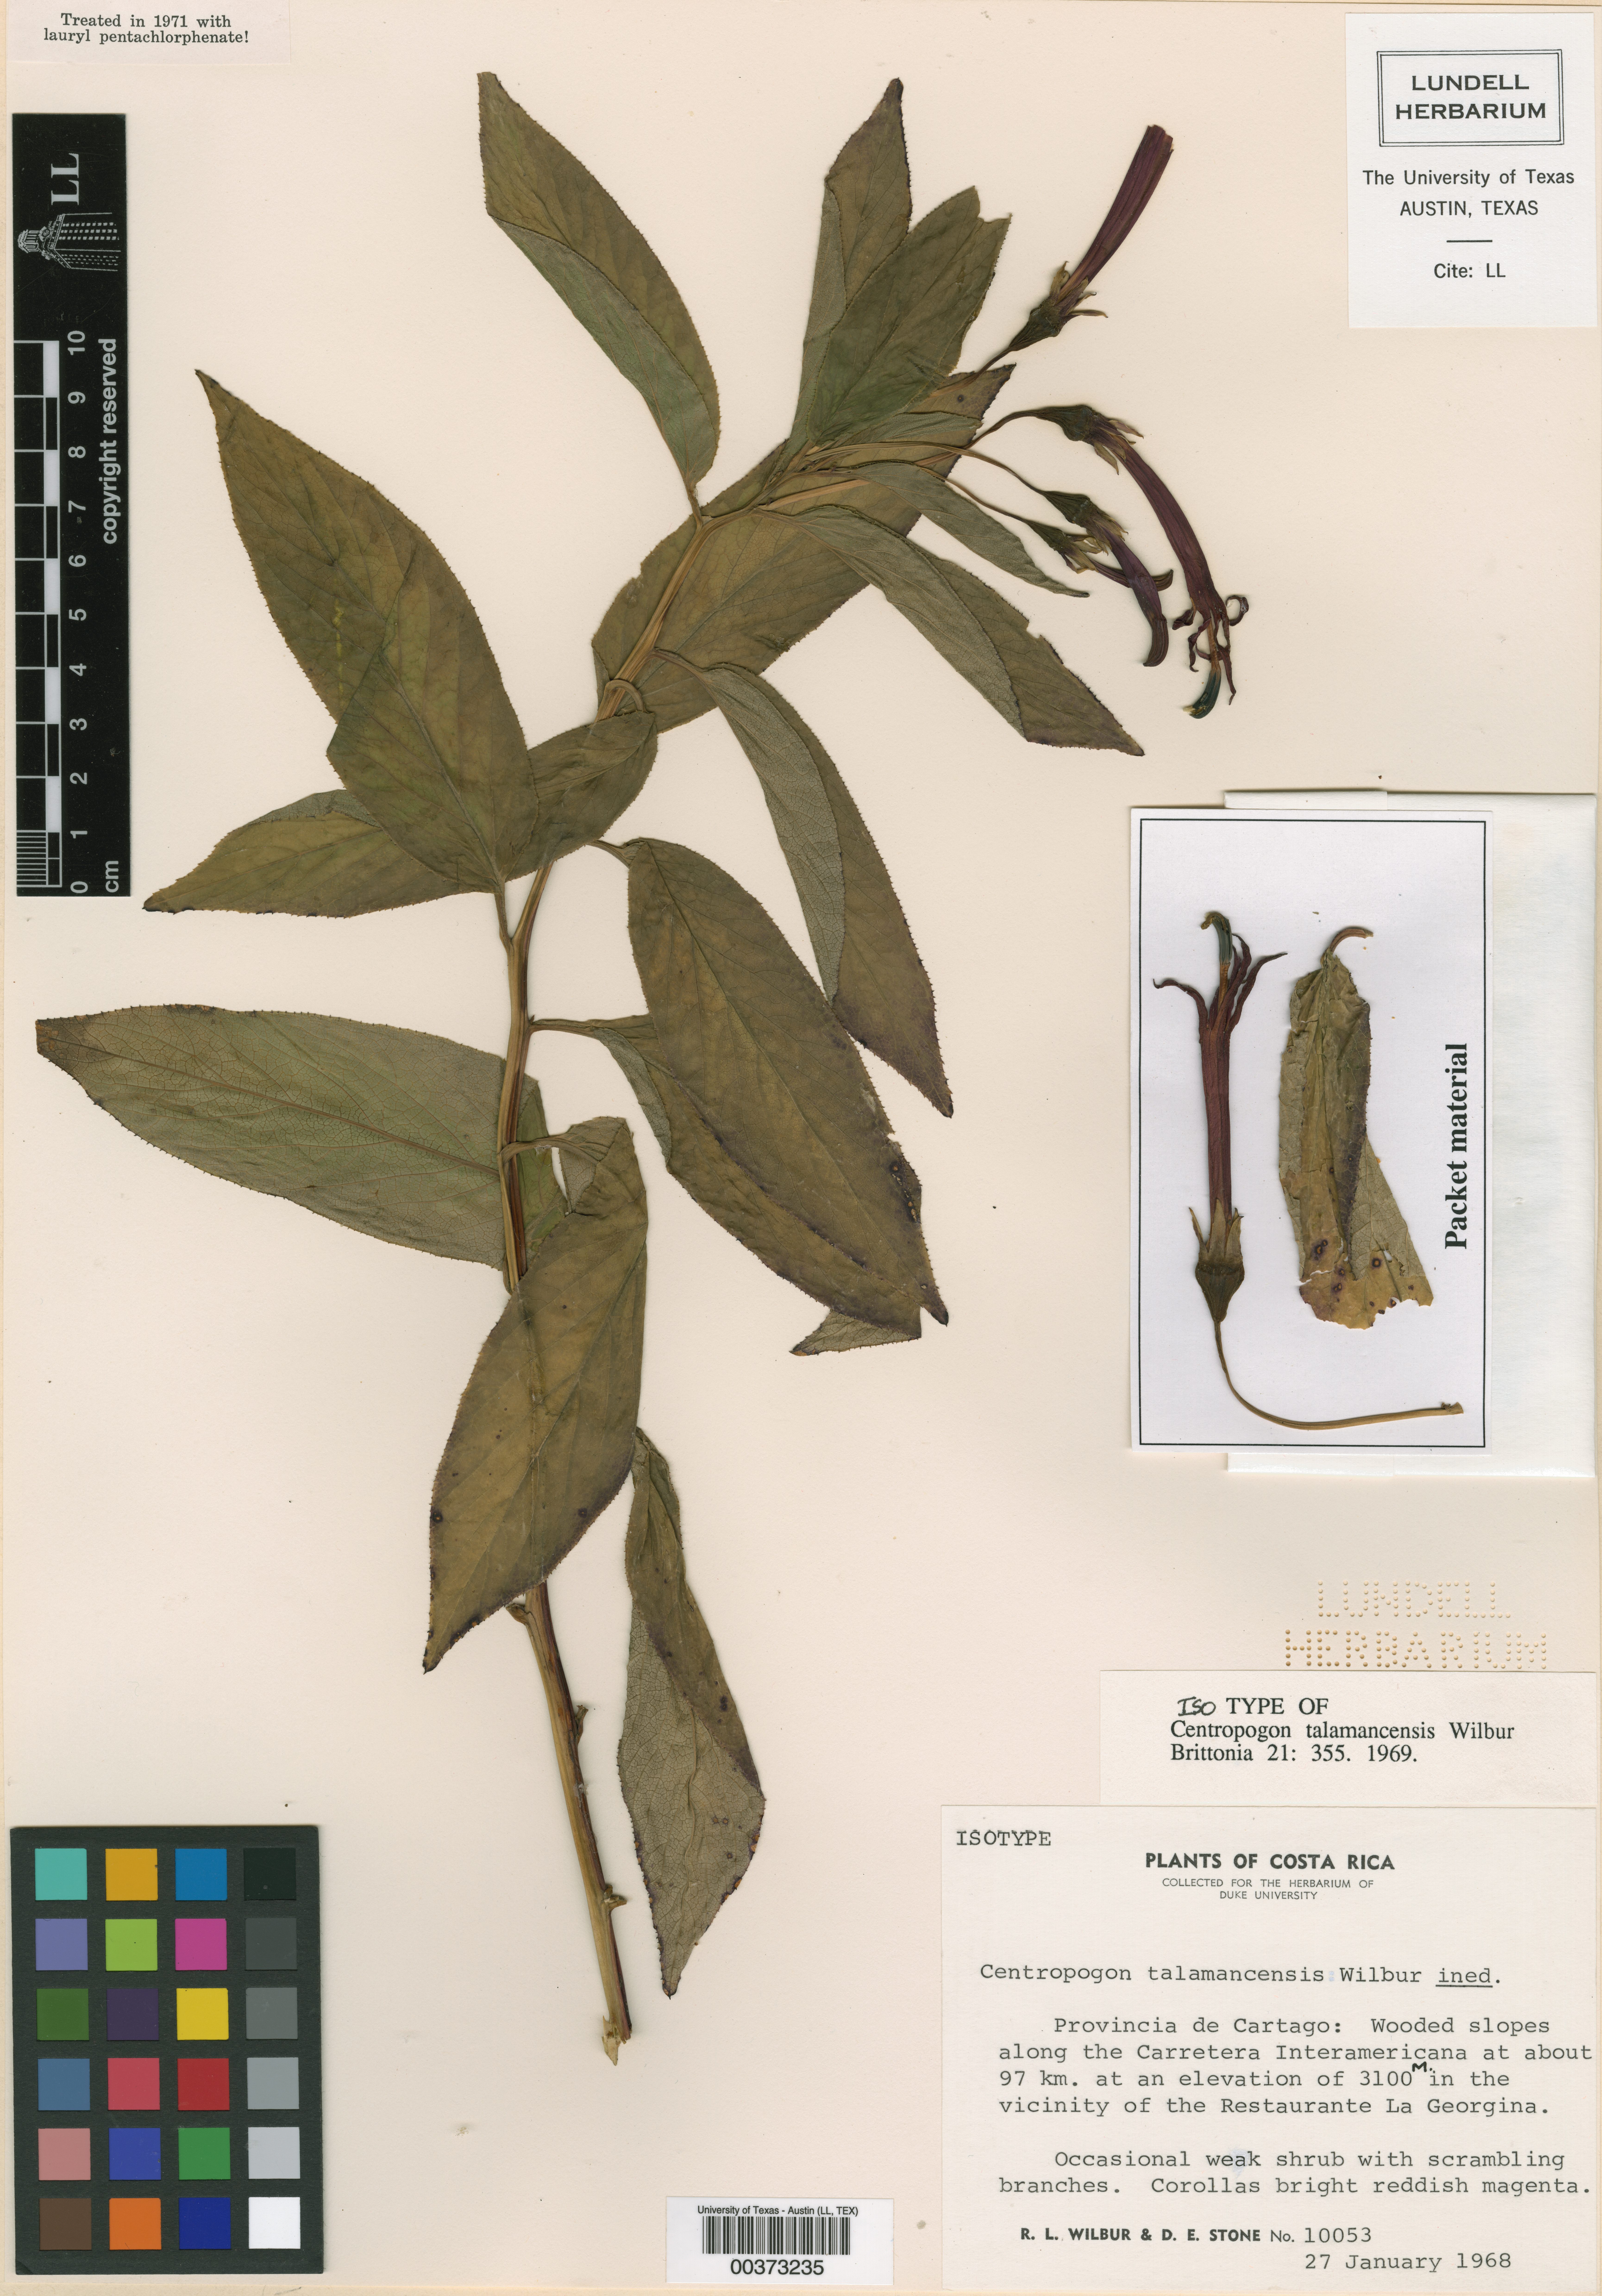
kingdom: Plantae
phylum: Tracheophyta
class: Magnoliopsida
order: Asterales
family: Campanulaceae
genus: Centropogon
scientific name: Centropogon talamancensis
